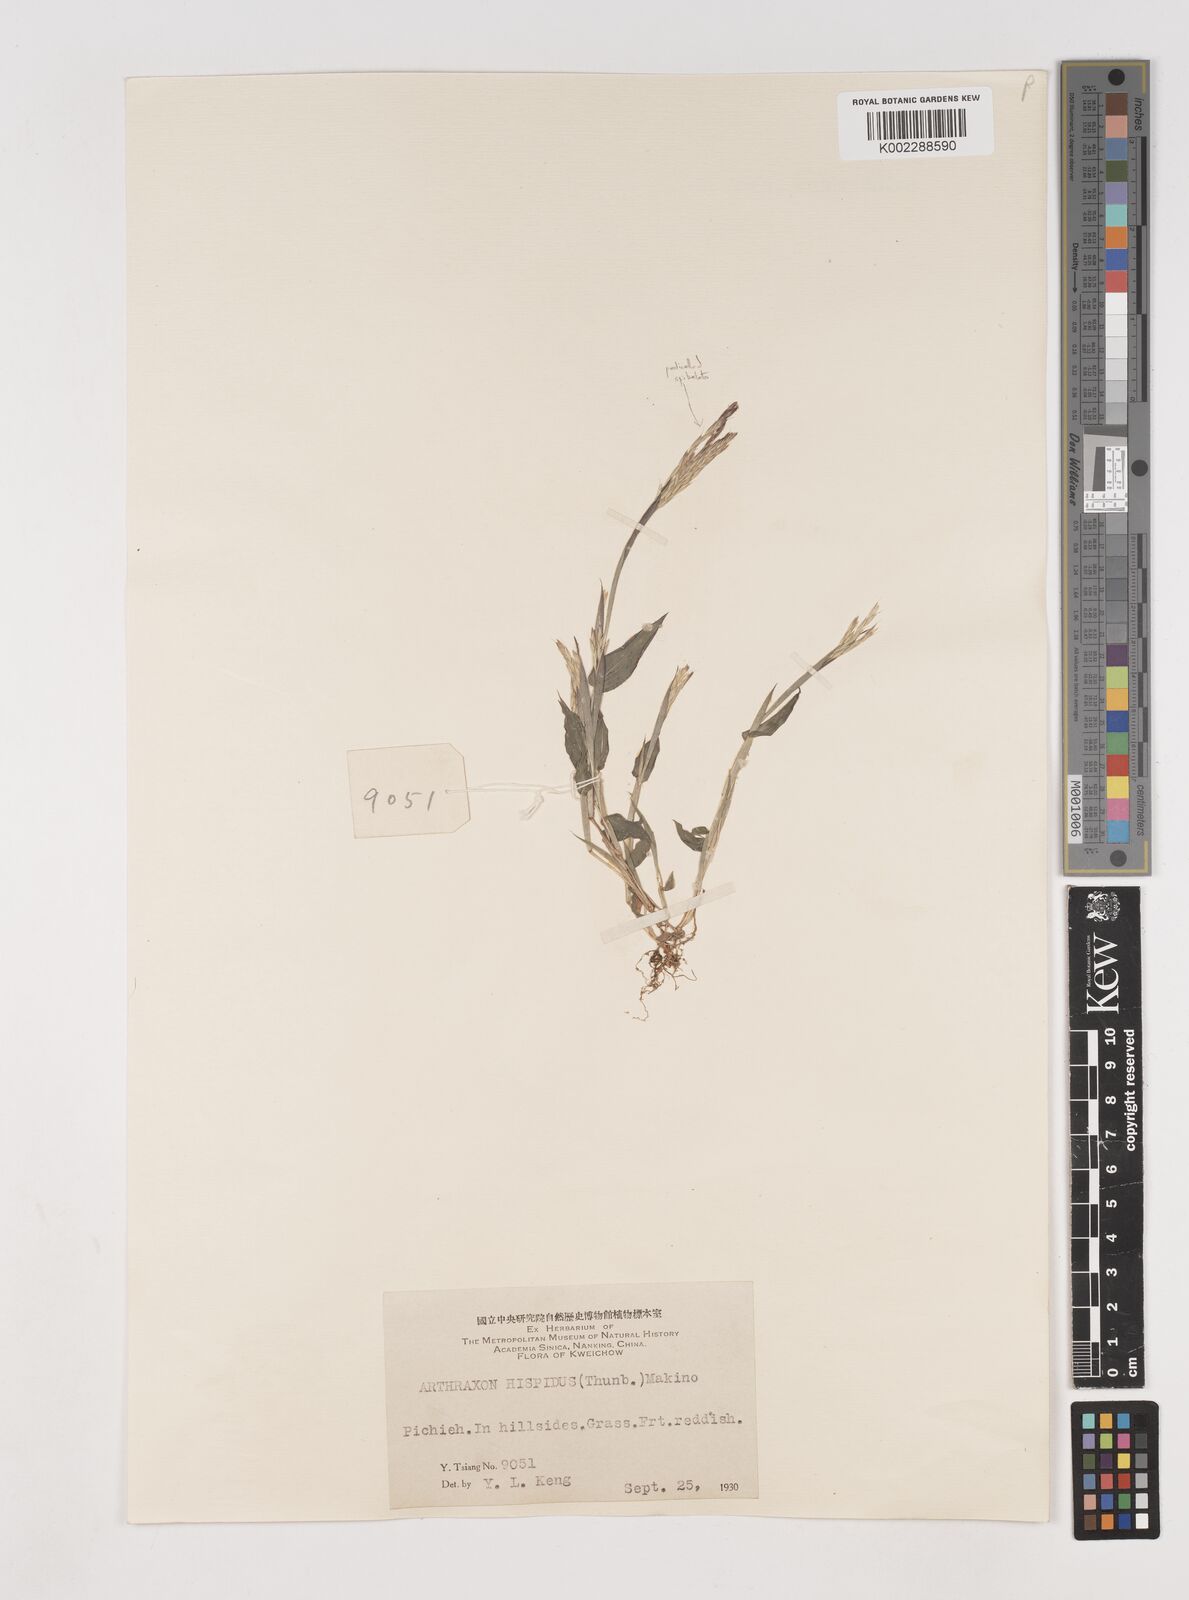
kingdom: Plantae
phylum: Tracheophyta
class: Liliopsida
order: Poales
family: Poaceae
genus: Arthraxon
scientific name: Arthraxon hispidus
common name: Small carpgrass
